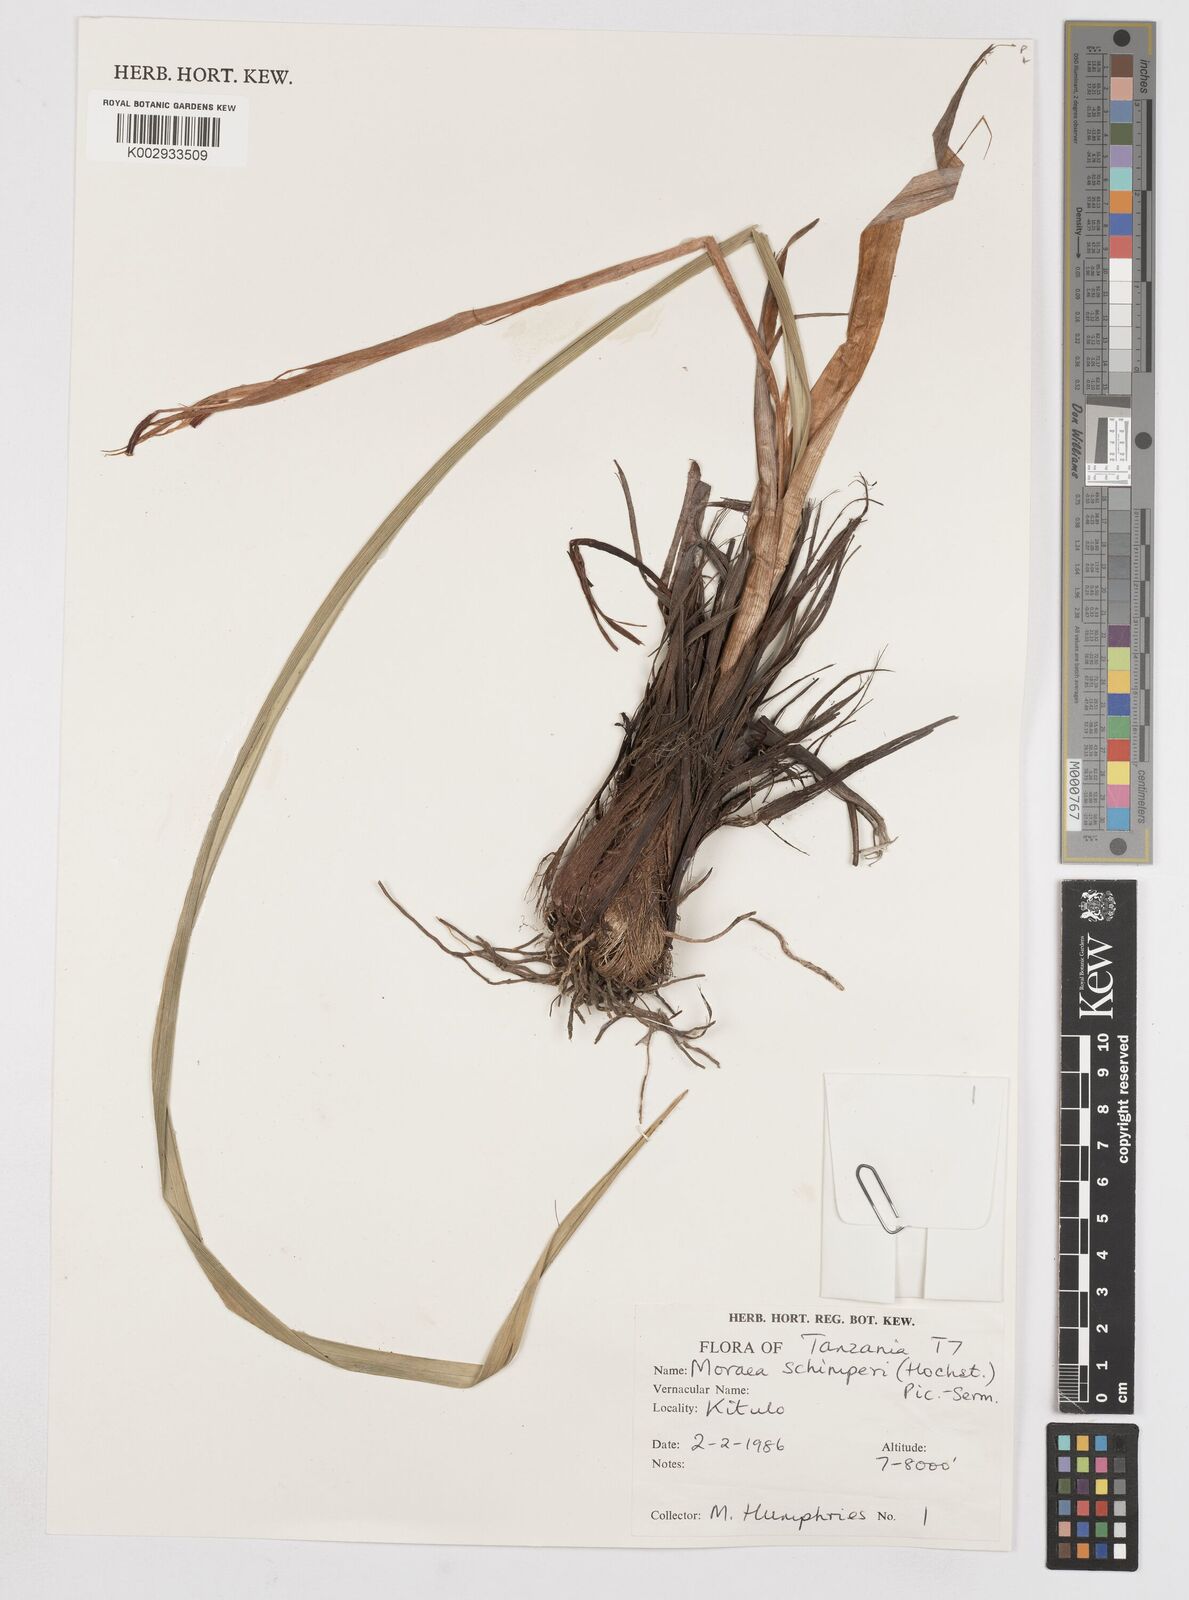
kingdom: Plantae
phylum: Tracheophyta
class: Liliopsida
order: Asparagales
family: Iridaceae
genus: Moraea
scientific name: Moraea schimperi
